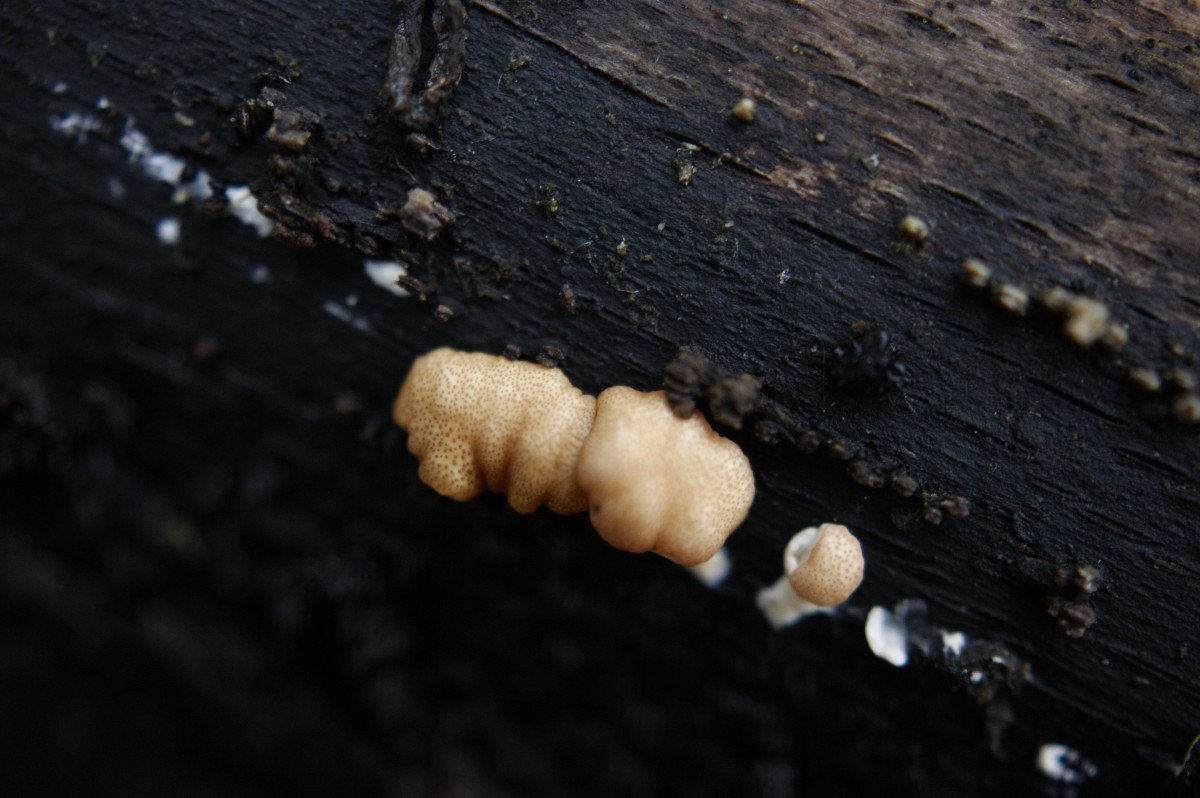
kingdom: Fungi
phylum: Ascomycota
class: Sordariomycetes
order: Hypocreales
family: Hypocreaceae
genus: Trichoderma
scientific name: Trichoderma europaeum
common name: rosabrun kødkerne
